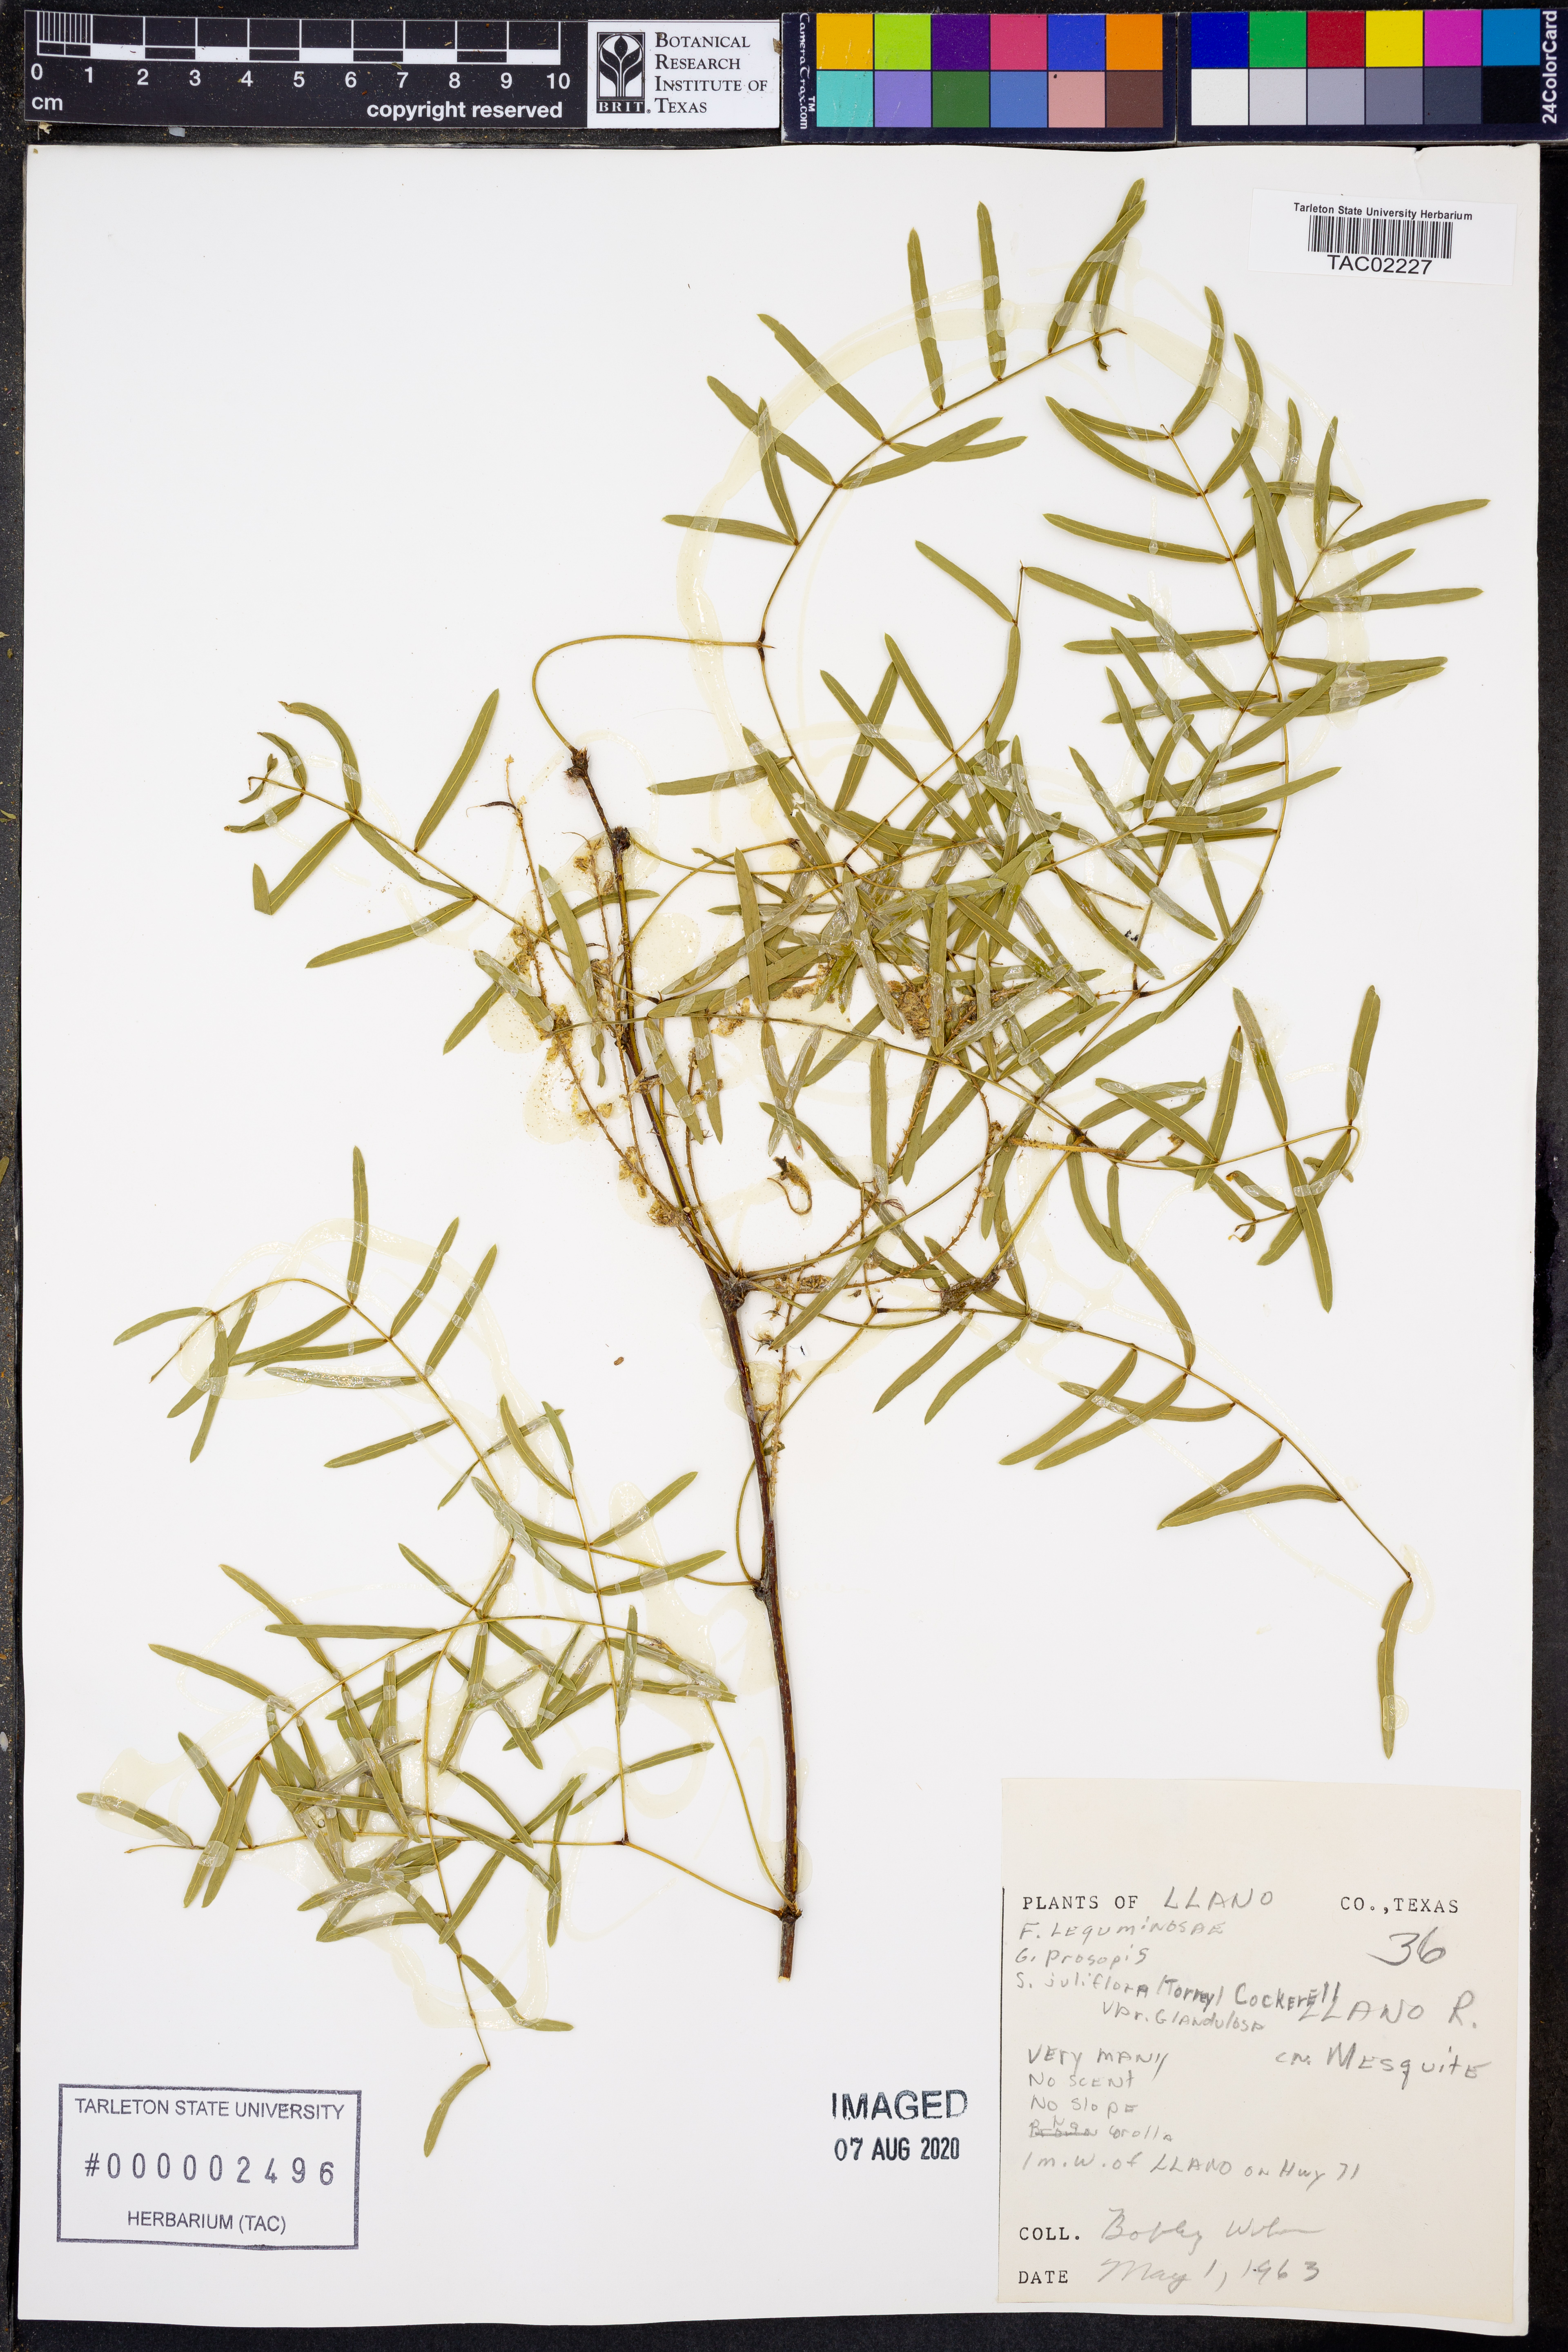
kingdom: Plantae
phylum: Tracheophyta
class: Magnoliopsida
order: Fabales
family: Fabaceae
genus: Prosopis
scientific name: Prosopis glandulosa
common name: Honey mesquite
